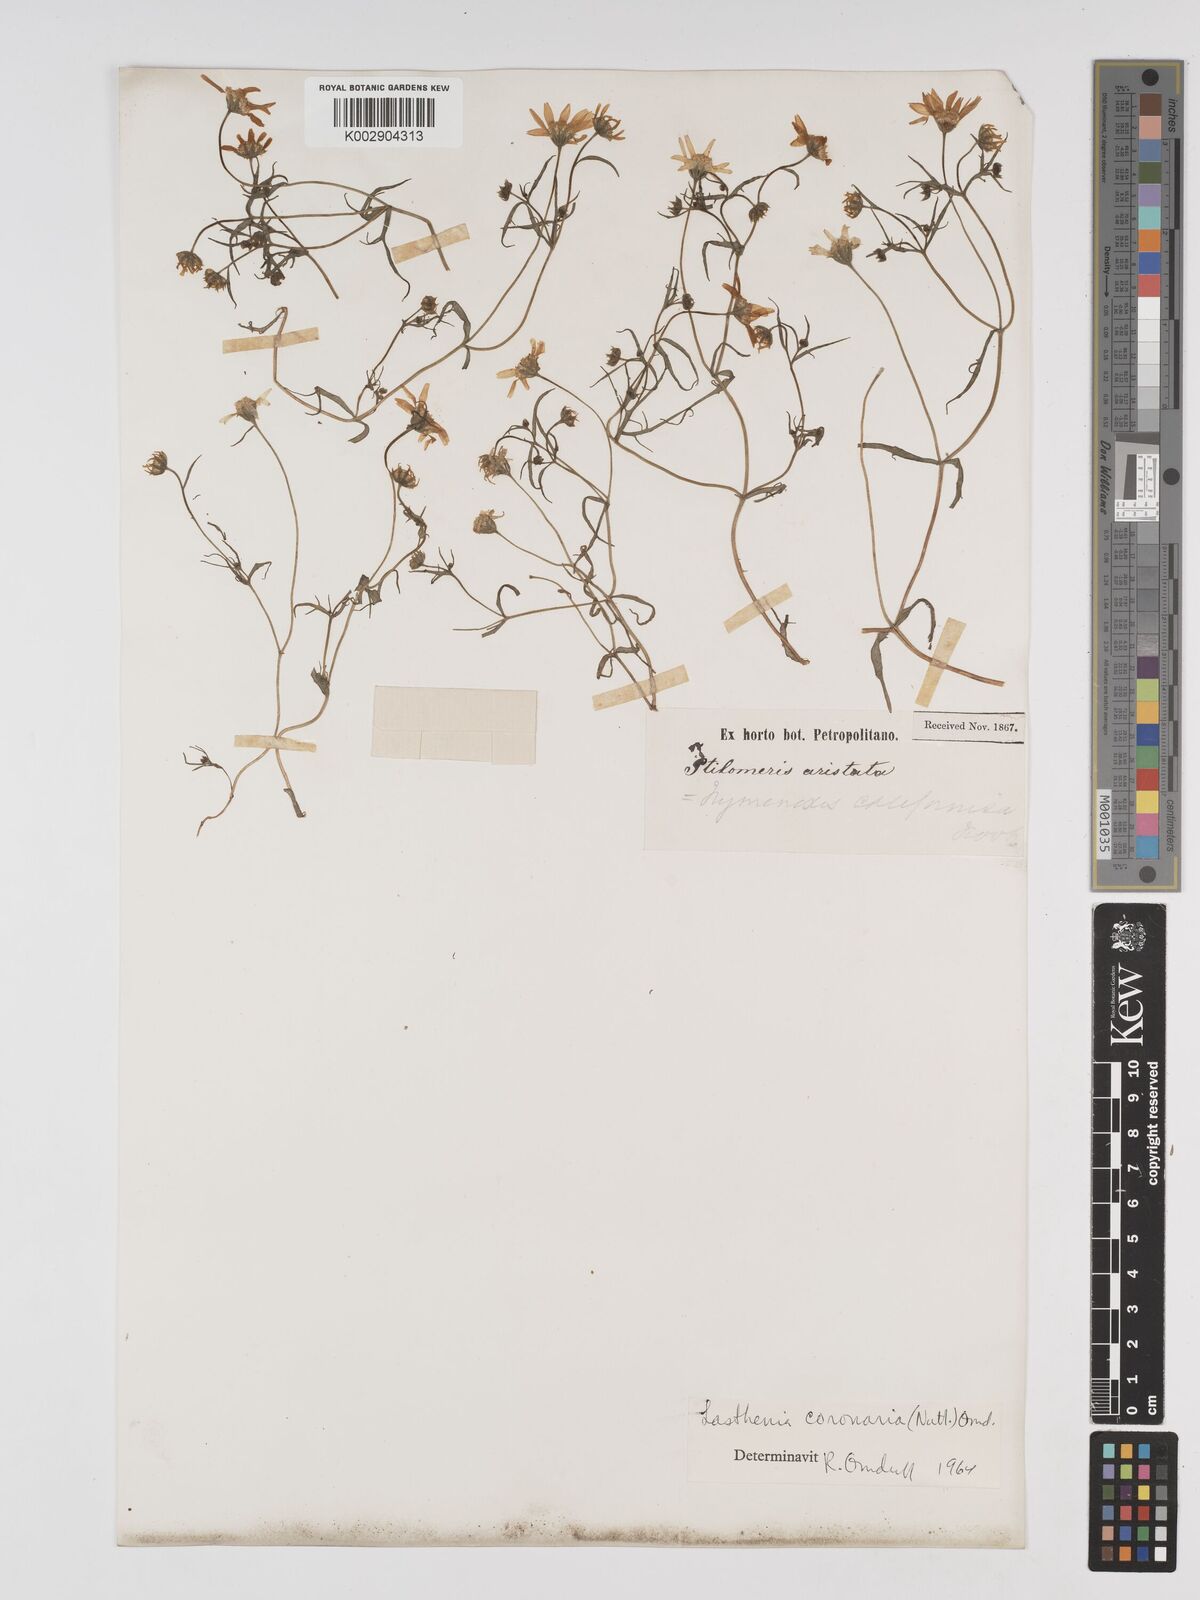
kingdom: Plantae
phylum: Tracheophyta
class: Magnoliopsida
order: Asterales
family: Asteraceae
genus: Lasthenia
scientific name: Lasthenia coronaria
